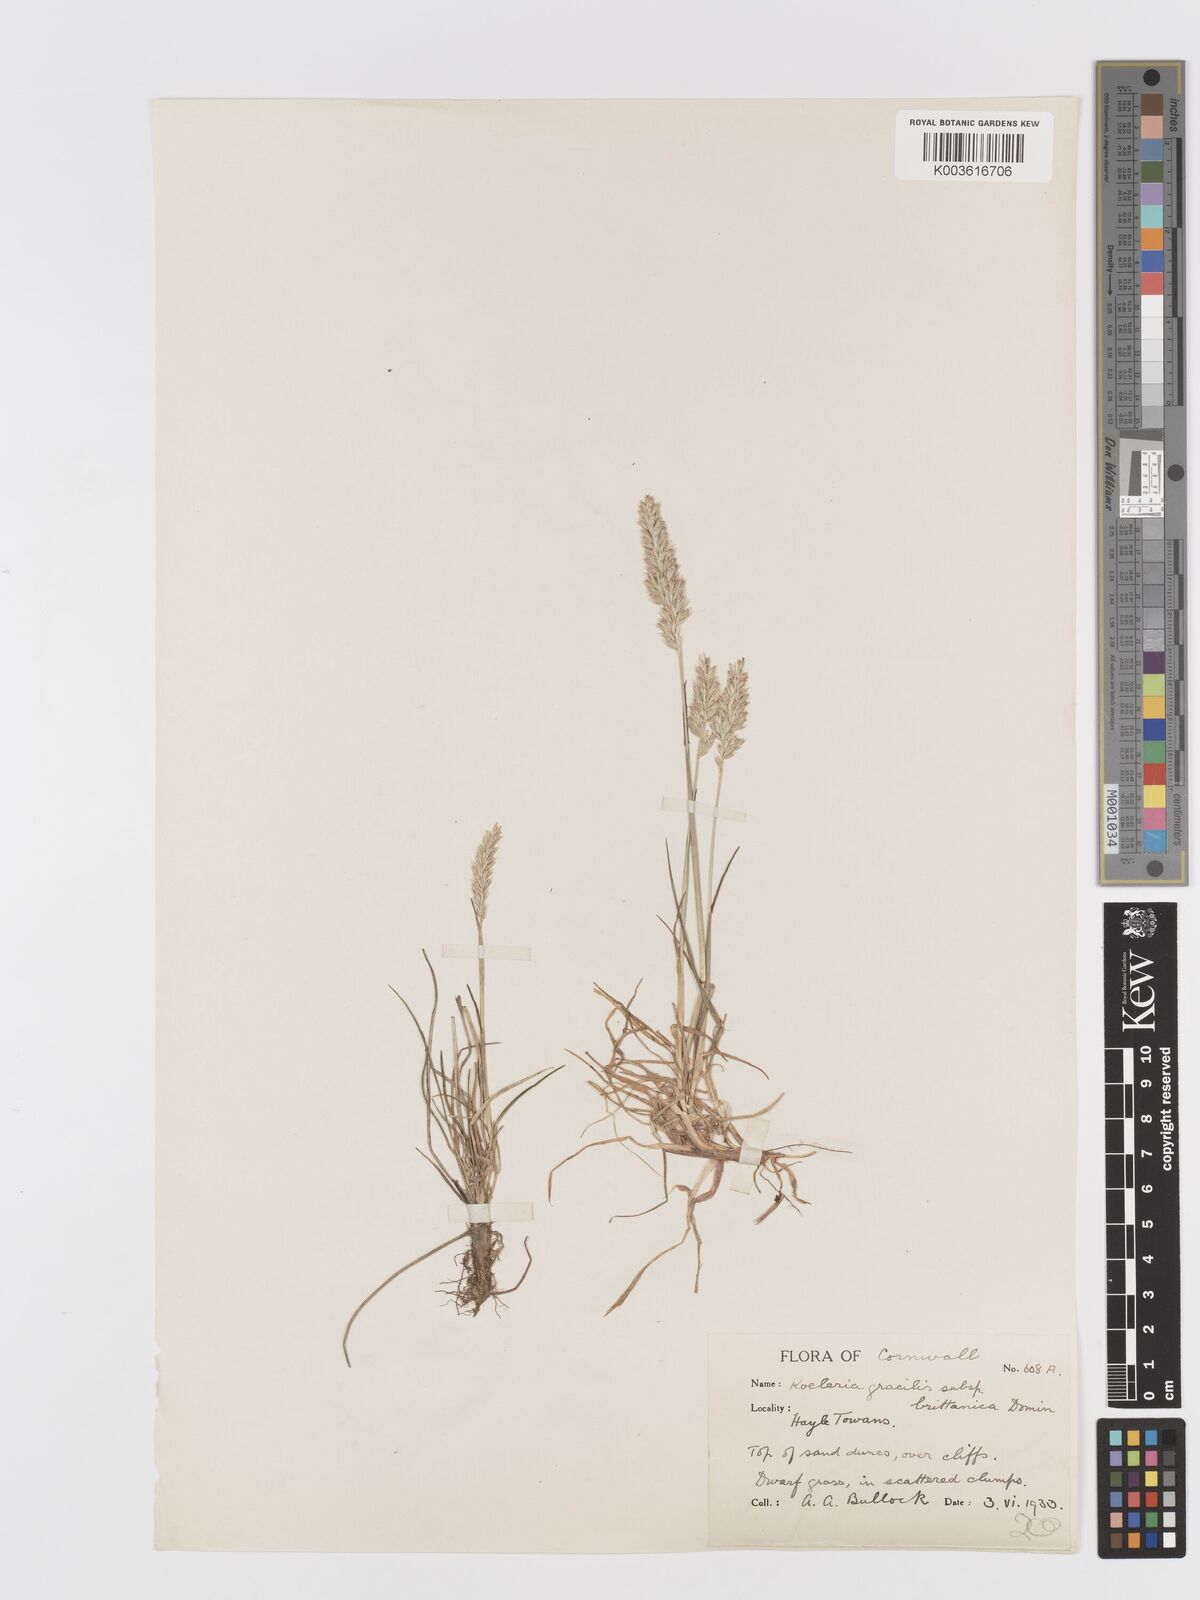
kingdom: Plantae
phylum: Tracheophyta
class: Liliopsida
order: Poales
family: Poaceae
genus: Koeleria
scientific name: Koeleria
